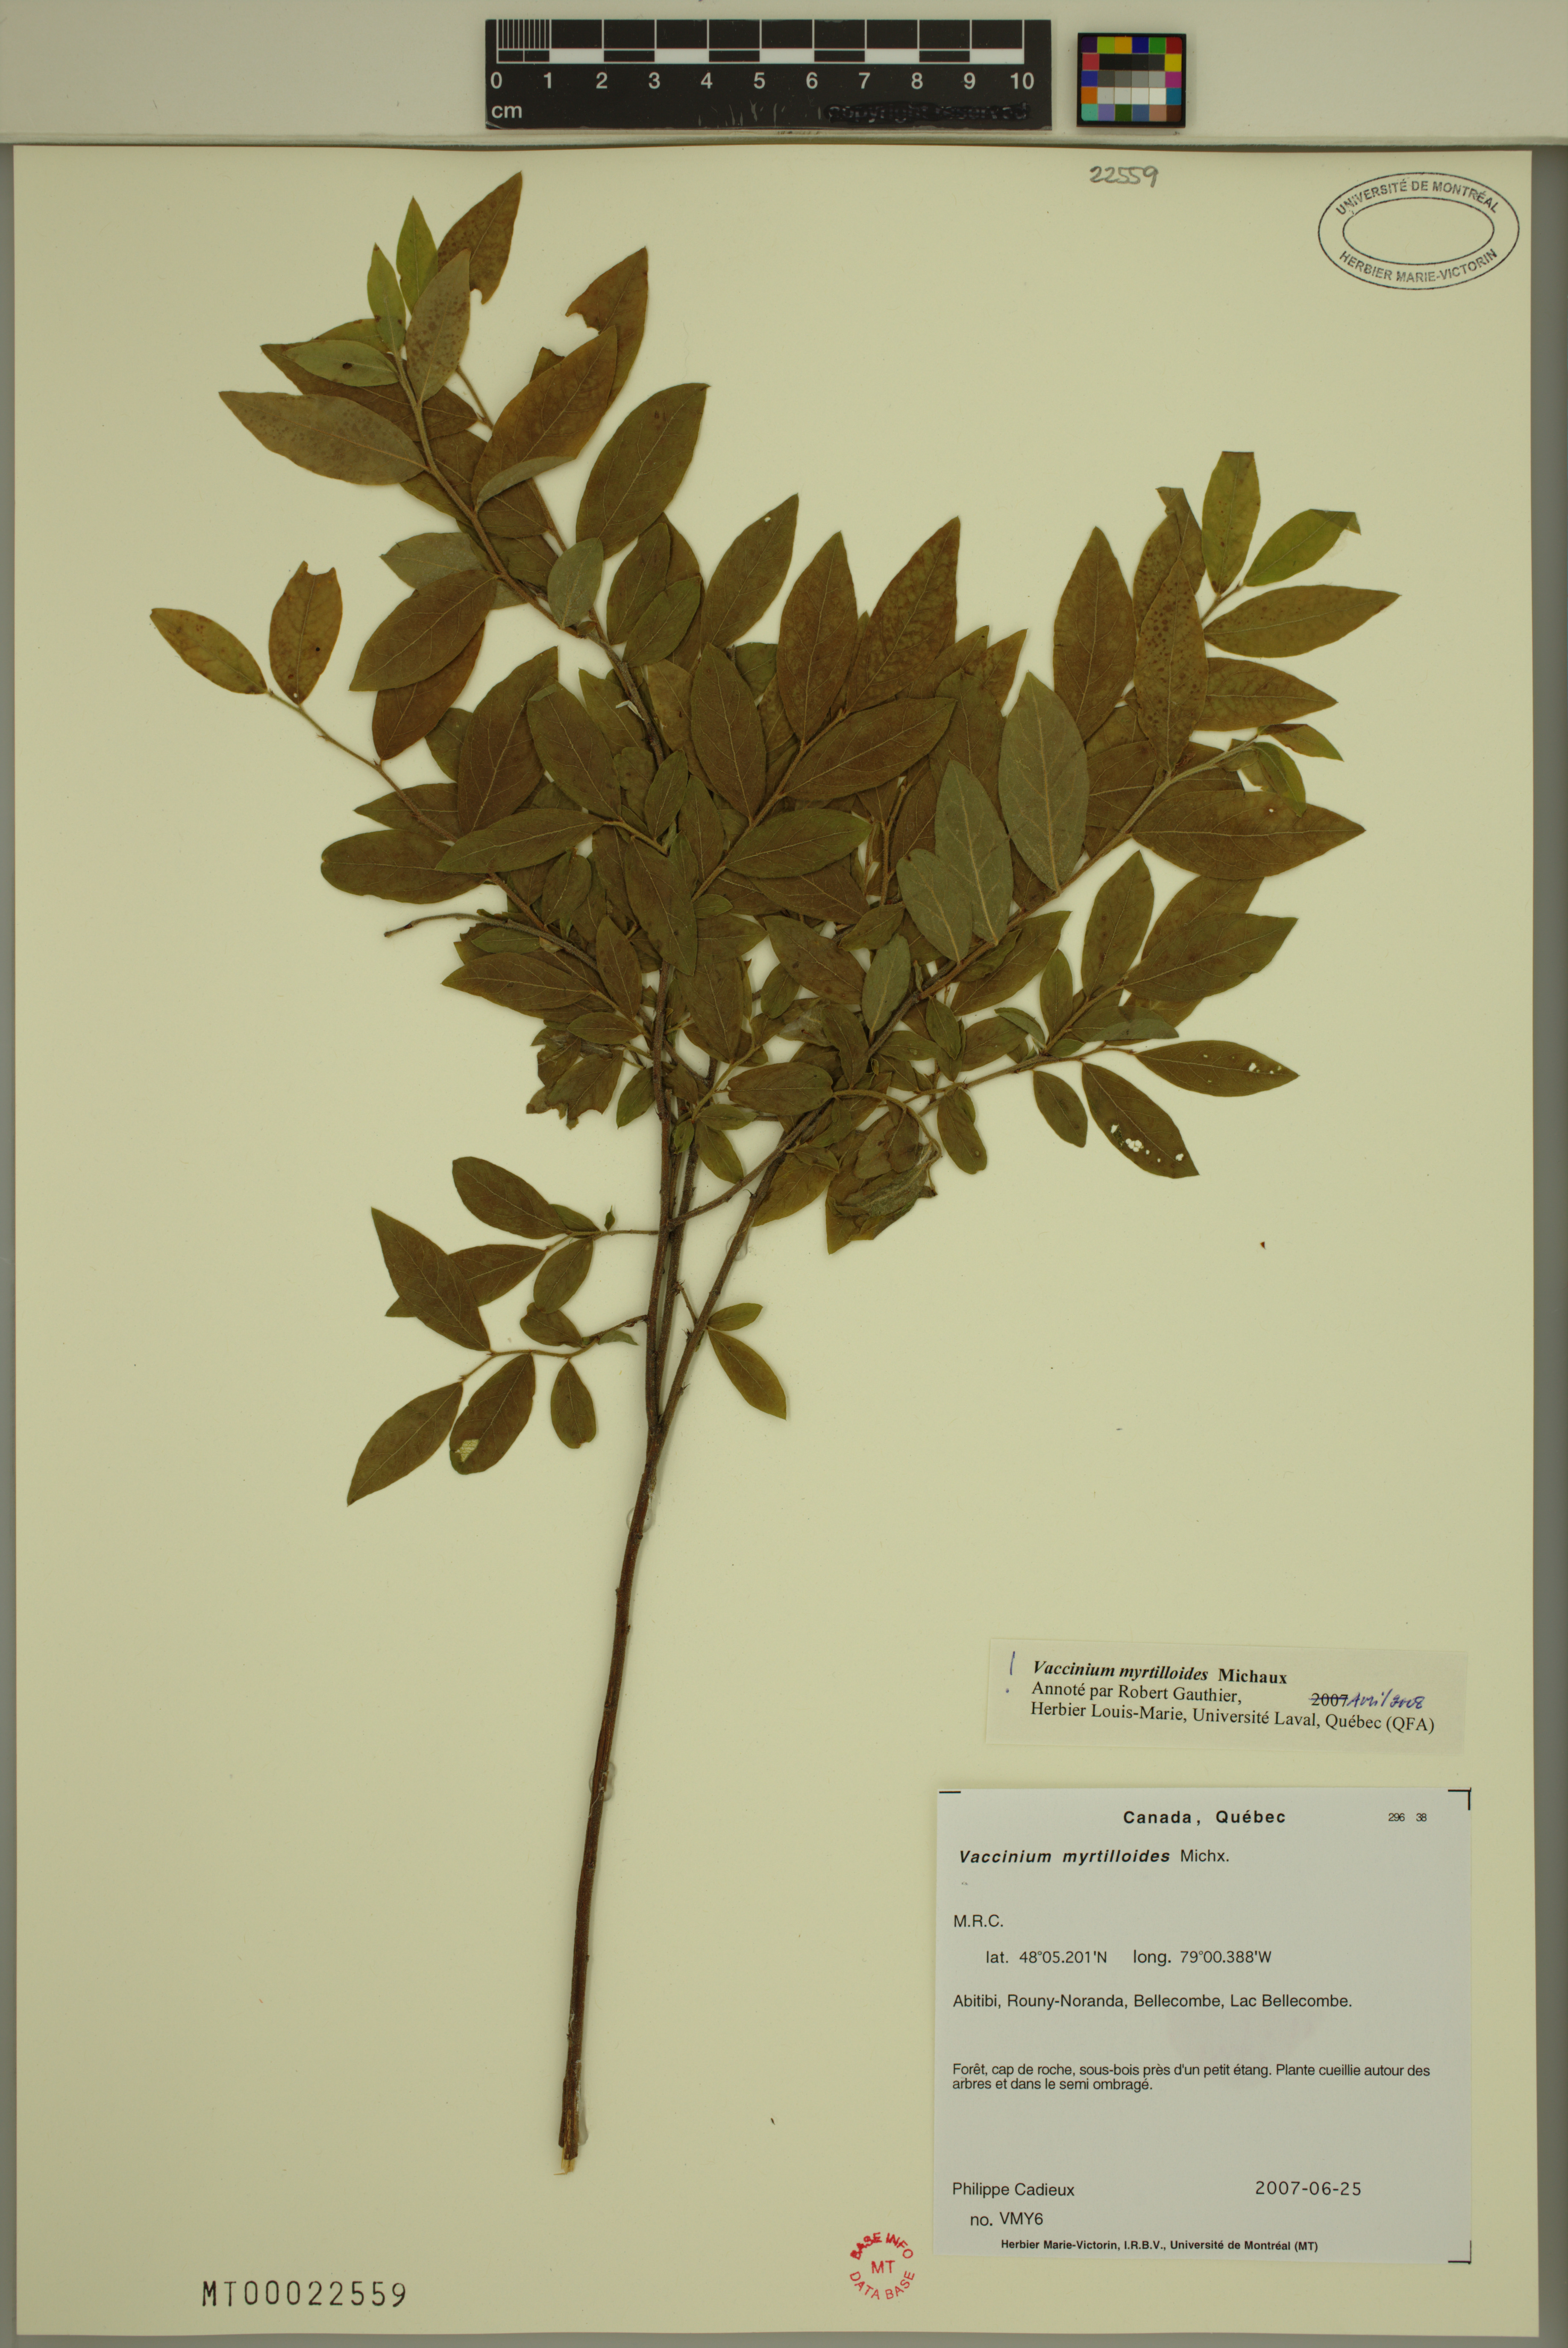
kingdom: Plantae
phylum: Tracheophyta
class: Magnoliopsida
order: Ericales
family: Ericaceae
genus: Vaccinium
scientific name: Vaccinium myrtilloides
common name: Canada blueberry
